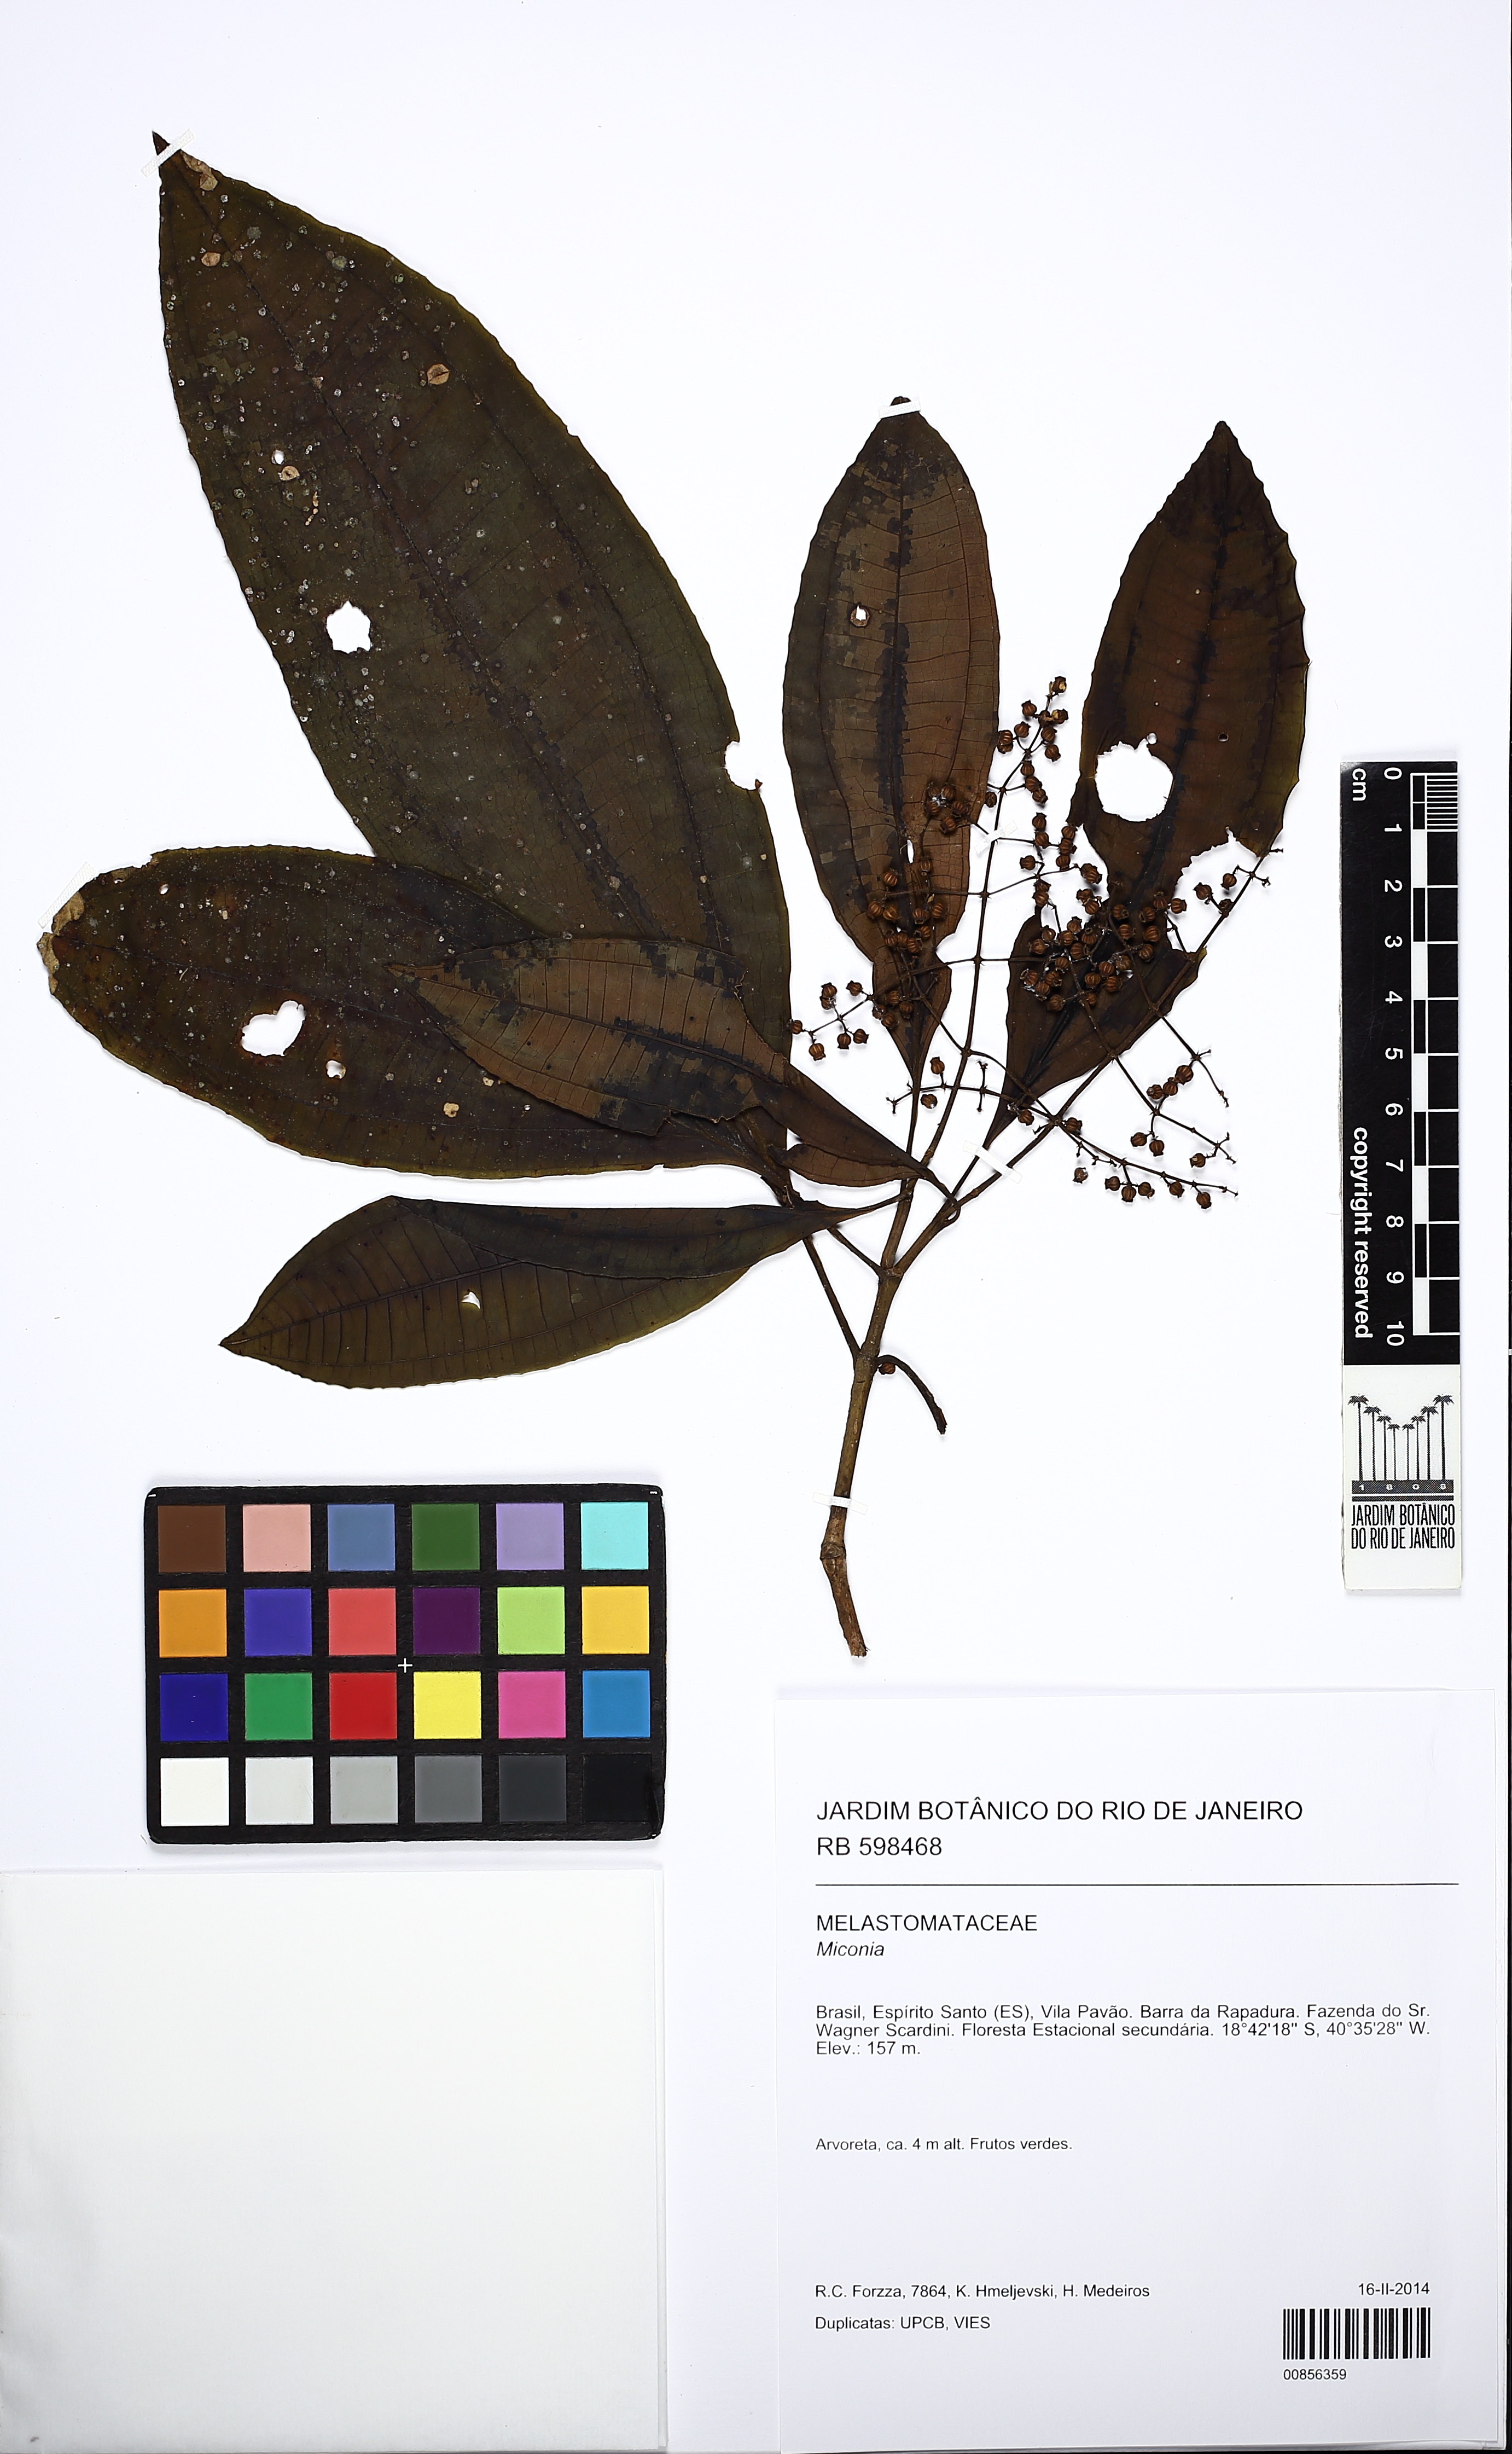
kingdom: Plantae
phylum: Tracheophyta
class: Magnoliopsida
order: Myrtales
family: Melastomataceae
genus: Miconia
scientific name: Miconia prasina
